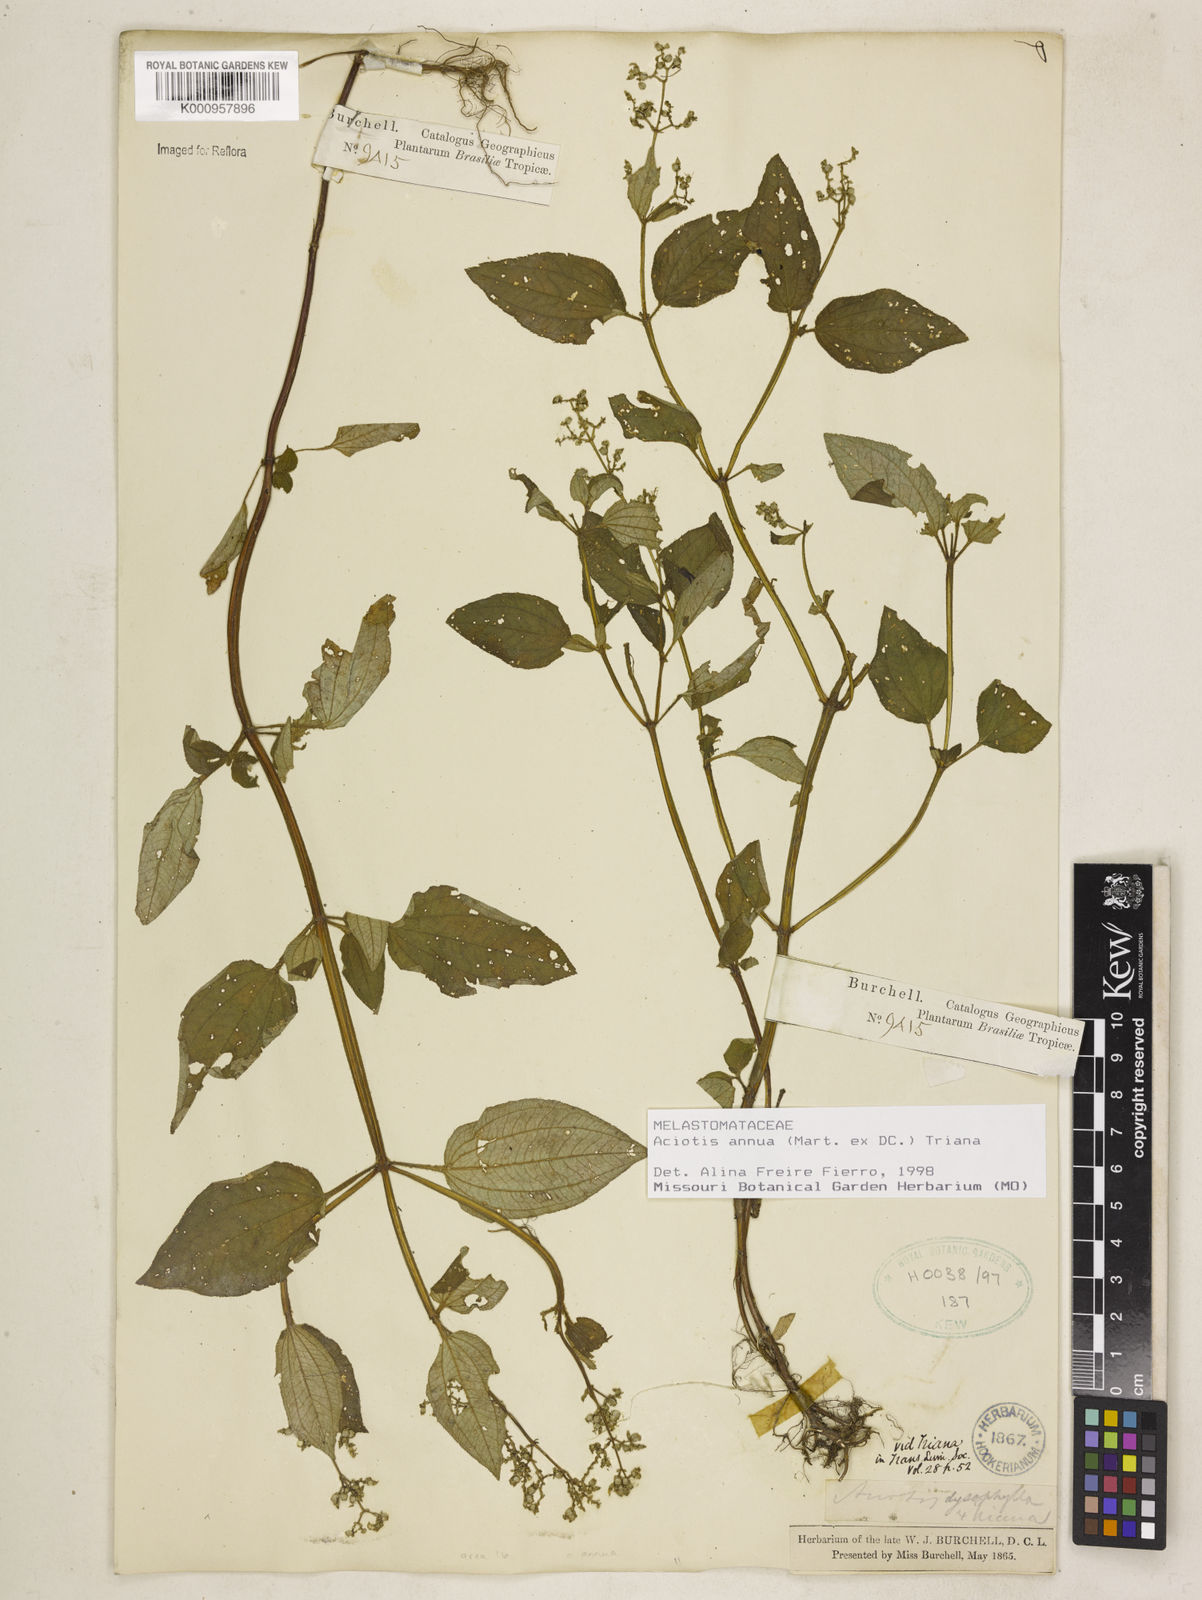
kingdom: Plantae
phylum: Tracheophyta
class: Magnoliopsida
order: Myrtales
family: Melastomataceae
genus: Aciotis
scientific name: Aciotis annua
